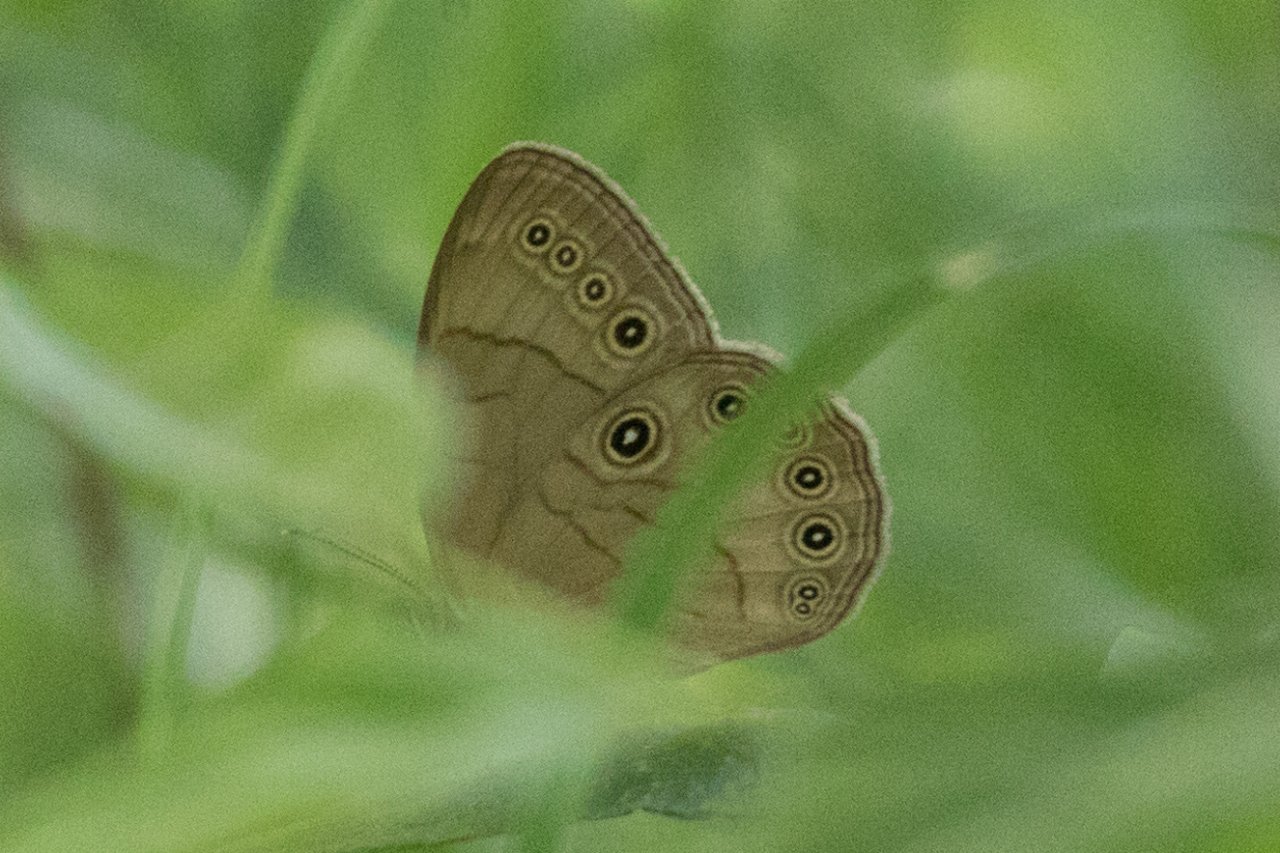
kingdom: Animalia
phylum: Arthropoda
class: Insecta
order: Lepidoptera
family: Nymphalidae
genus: Lethe
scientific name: Lethe eurydice
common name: Appalachian Eyed Brown
